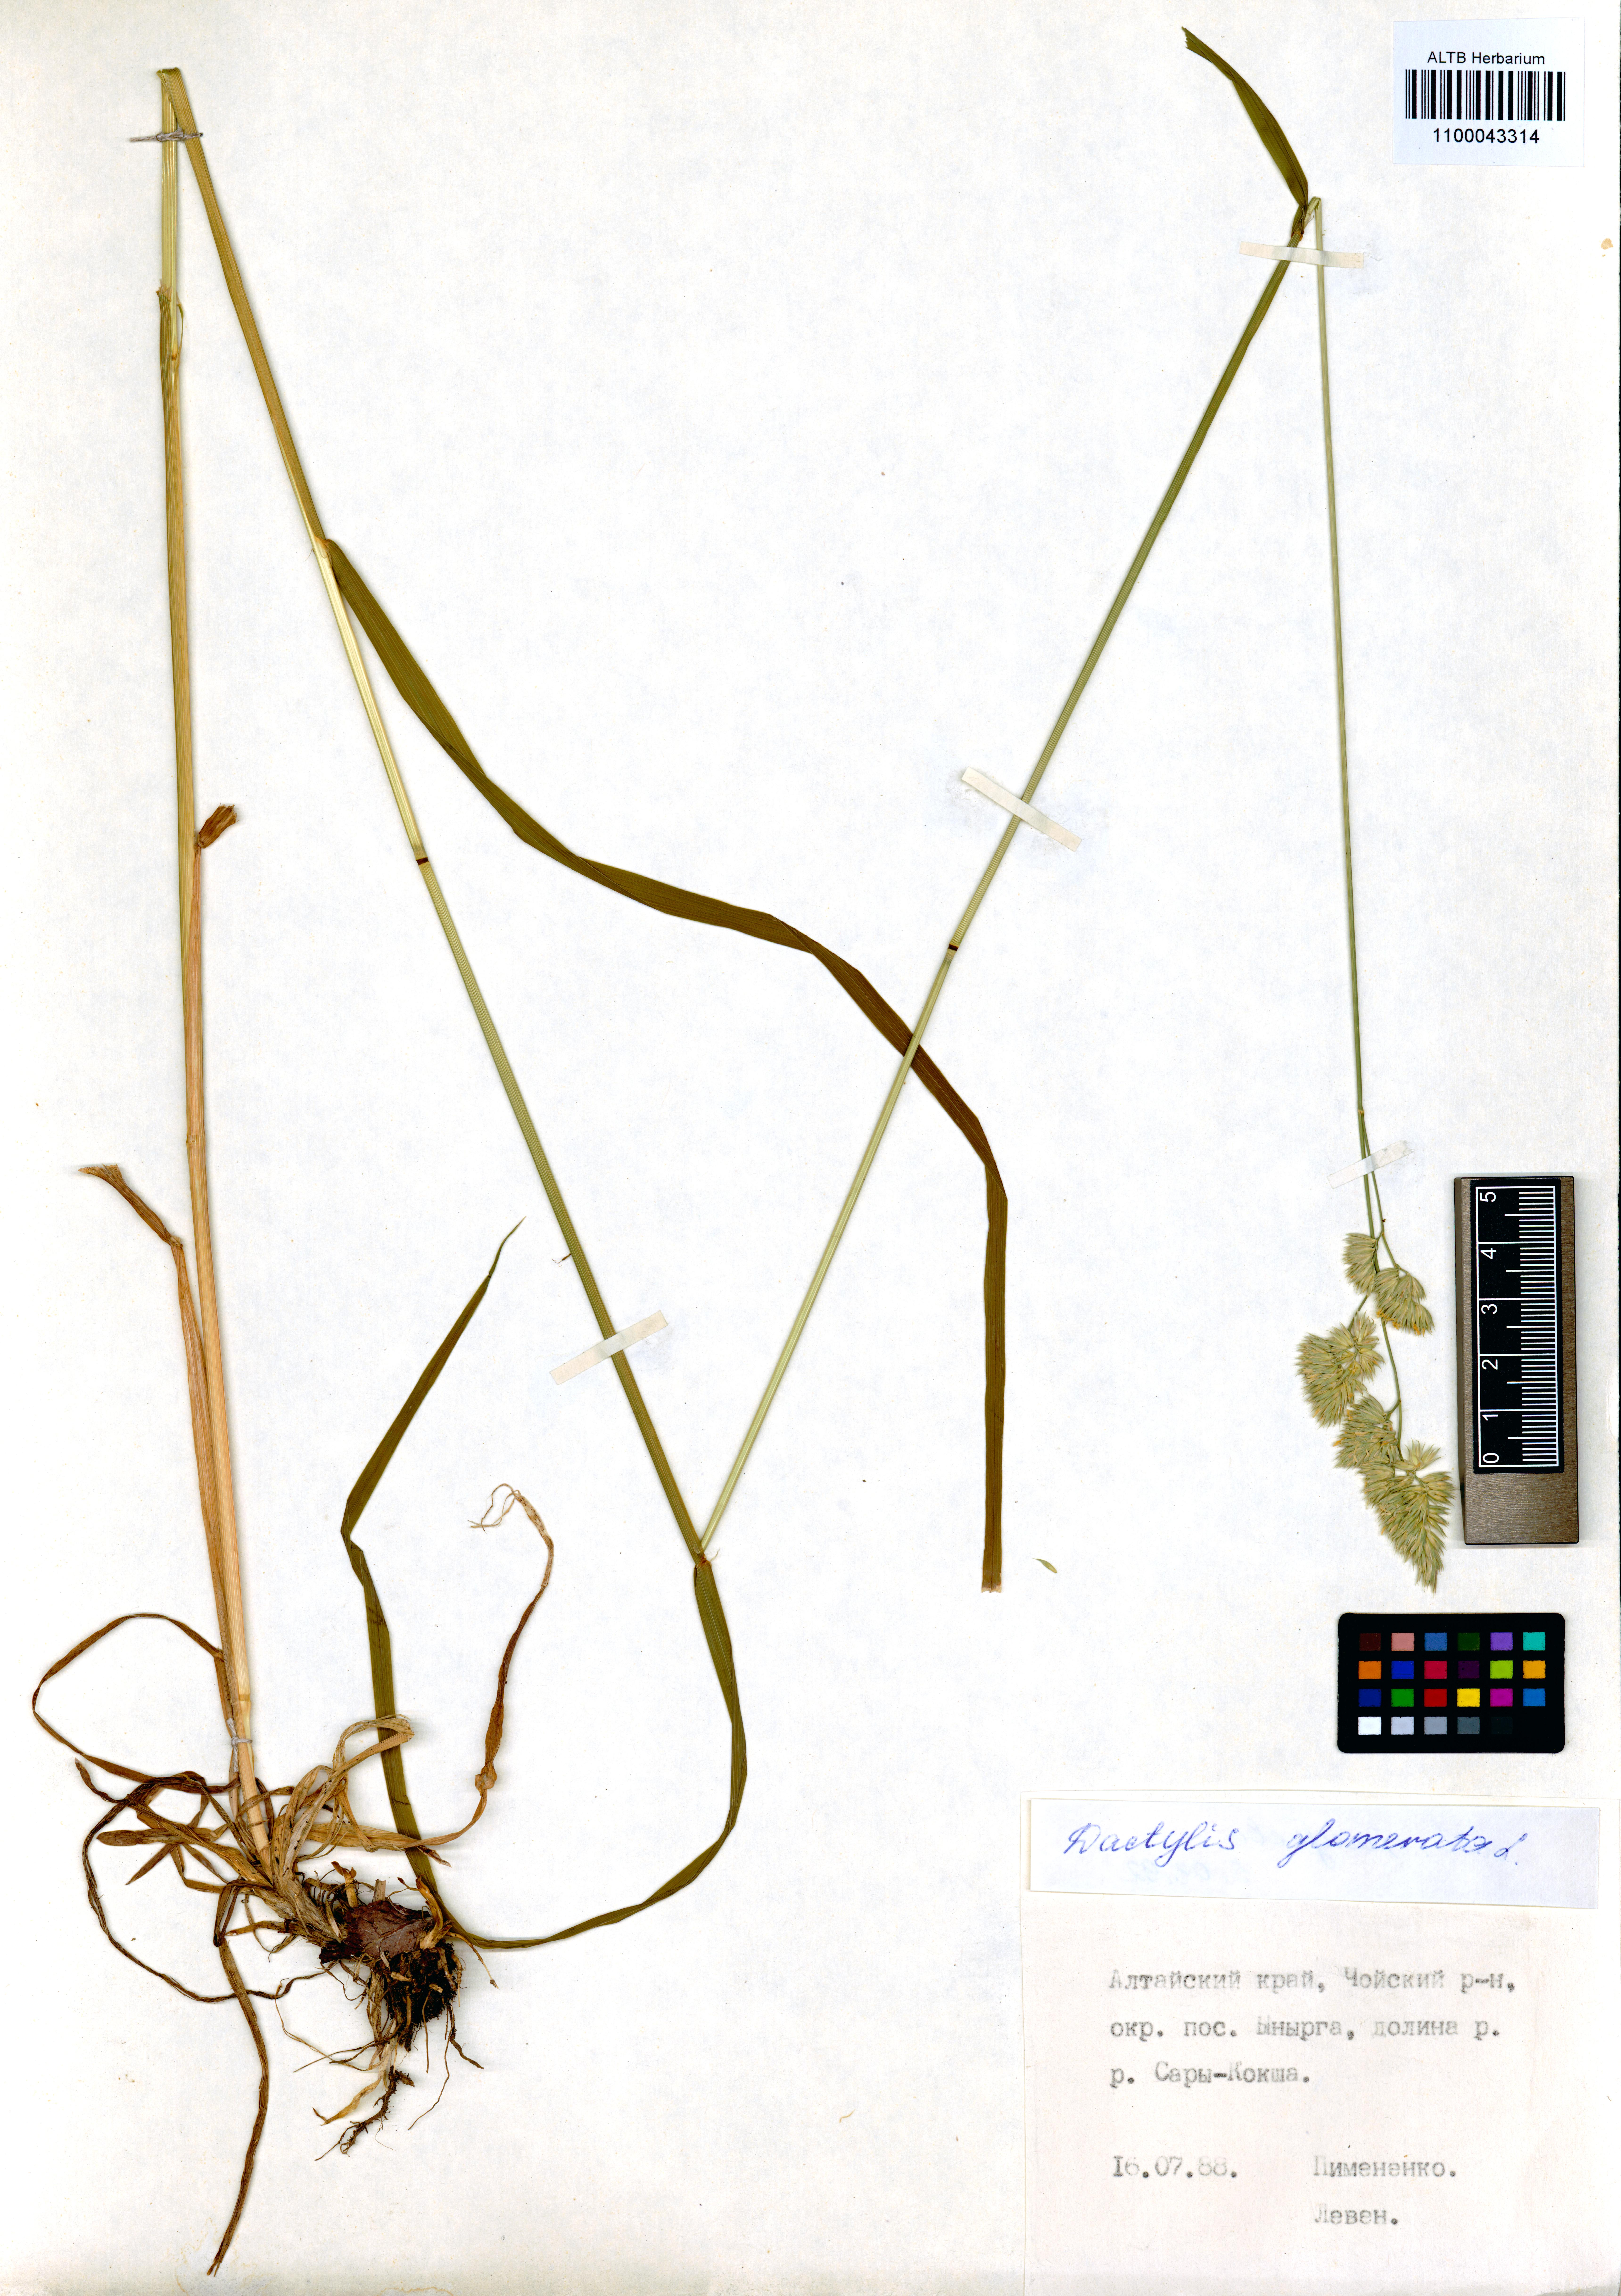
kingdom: Plantae
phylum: Tracheophyta
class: Liliopsida
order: Poales
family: Poaceae
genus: Dactylis
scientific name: Dactylis glomerata
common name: Orchardgrass
